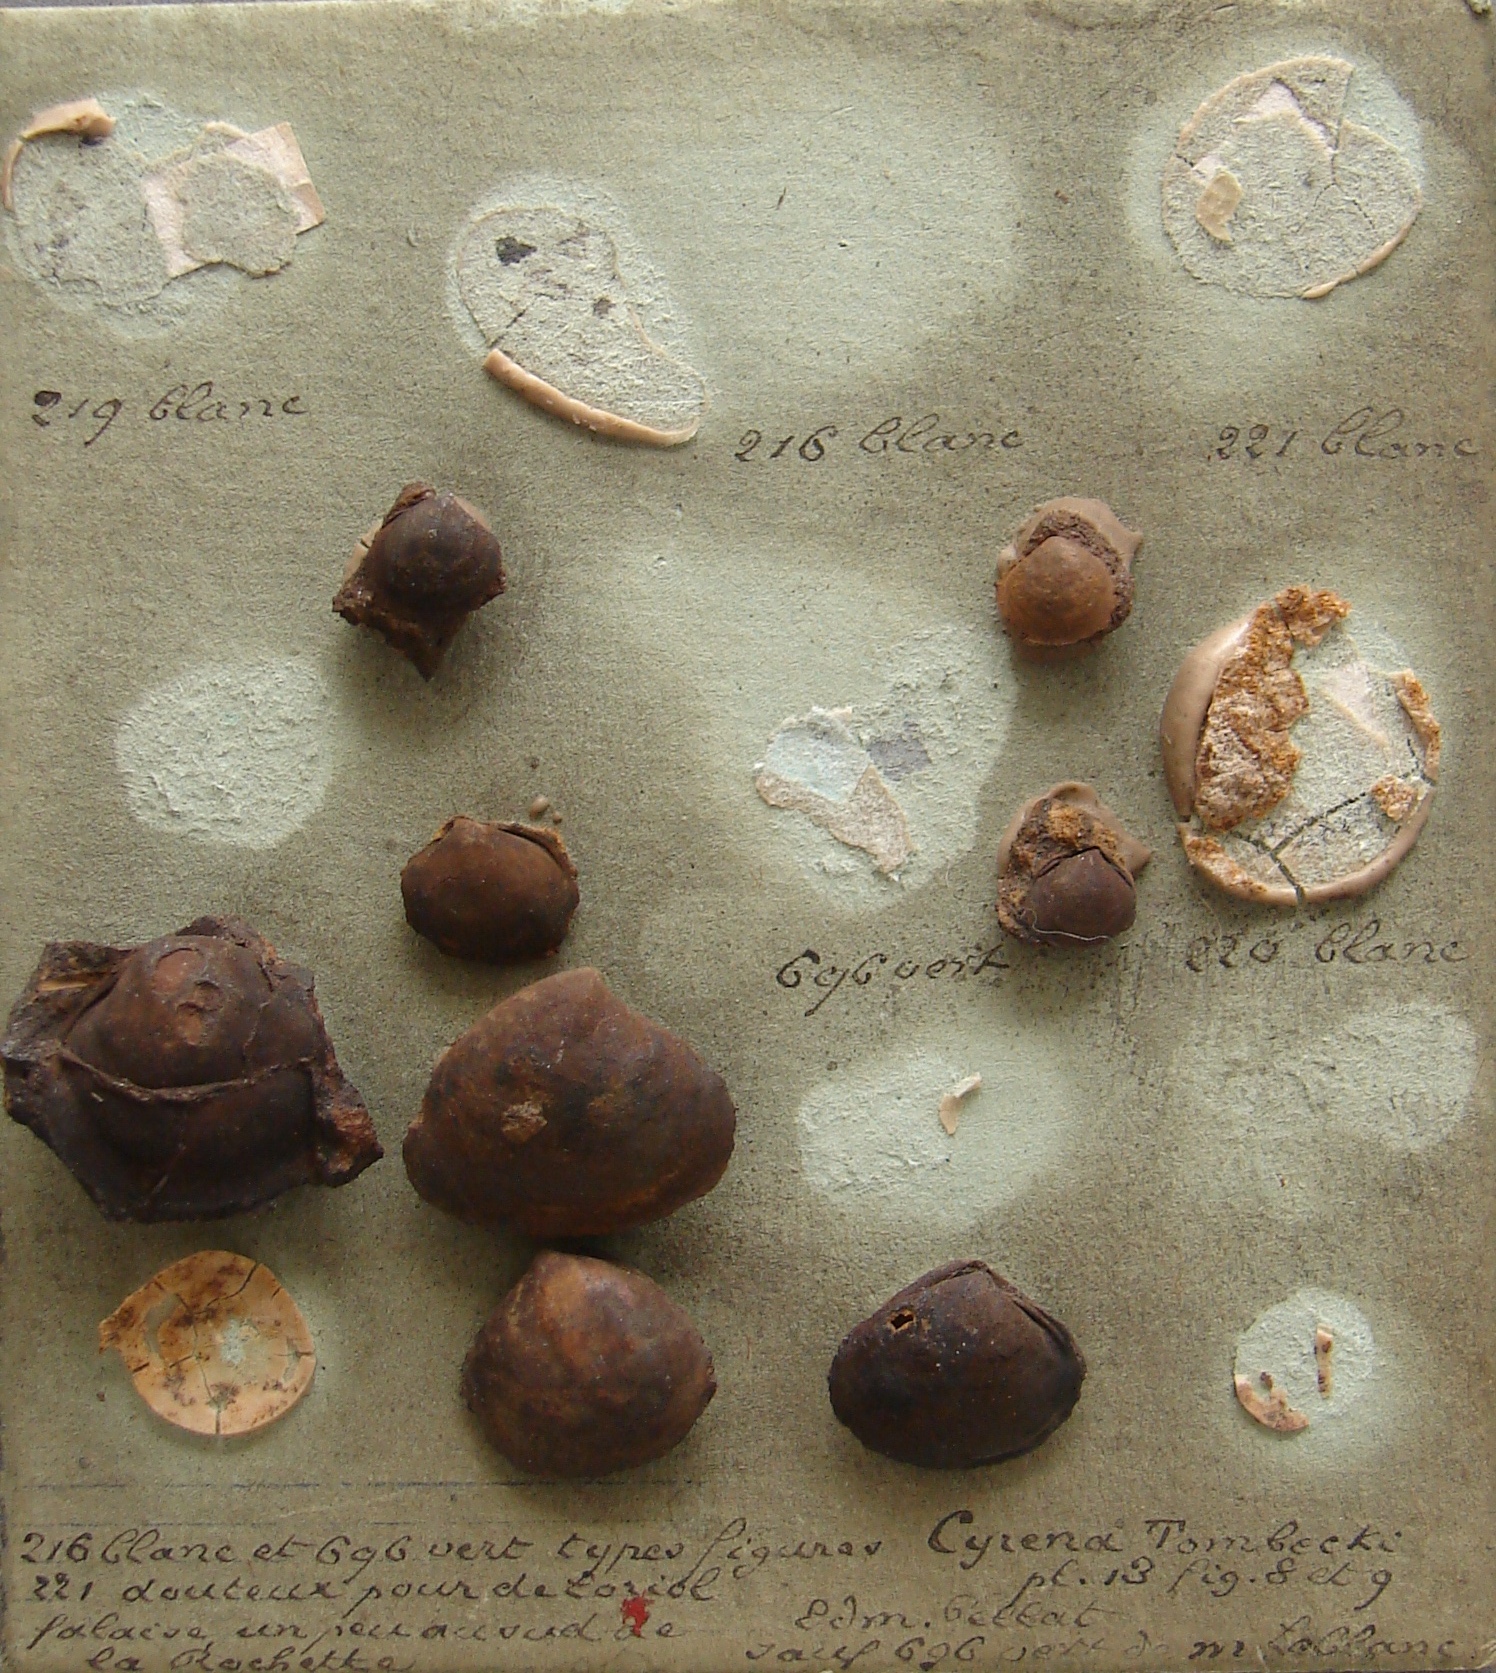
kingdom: Animalia
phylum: Mollusca
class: Bivalvia
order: Venerida
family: Cyrenidae
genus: Corbicula
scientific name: Corbicula Cyrena tombecki
